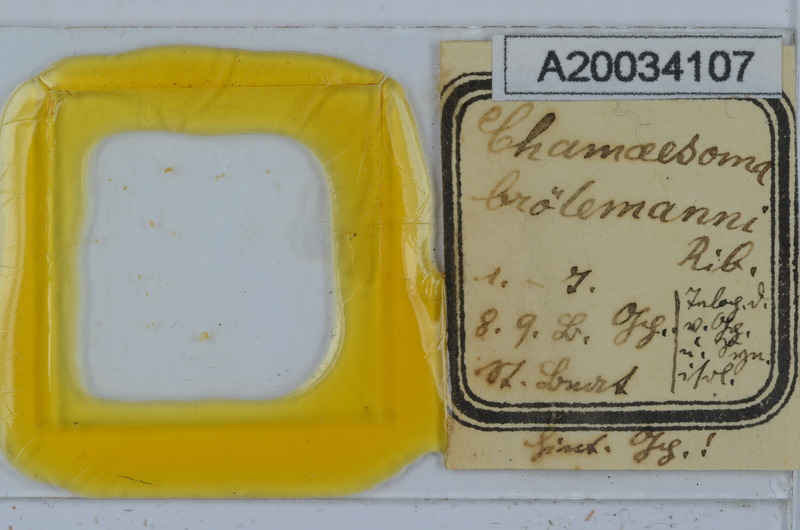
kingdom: Animalia
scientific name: Animalia
